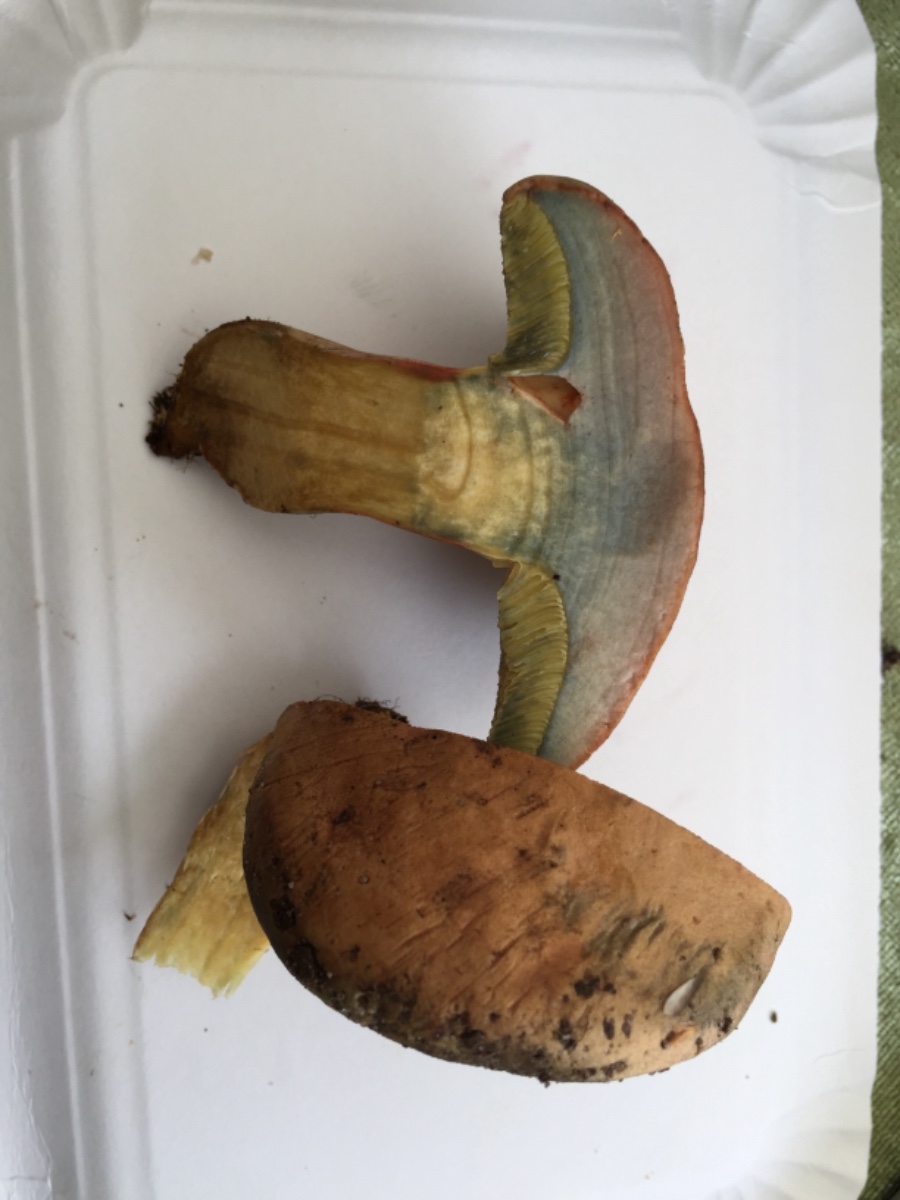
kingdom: Fungi
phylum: Basidiomycota
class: Agaricomycetes
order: Boletales
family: Boletaceae
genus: Hortiboletus
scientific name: Hortiboletus bubalinus
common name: aurora-rørhat
